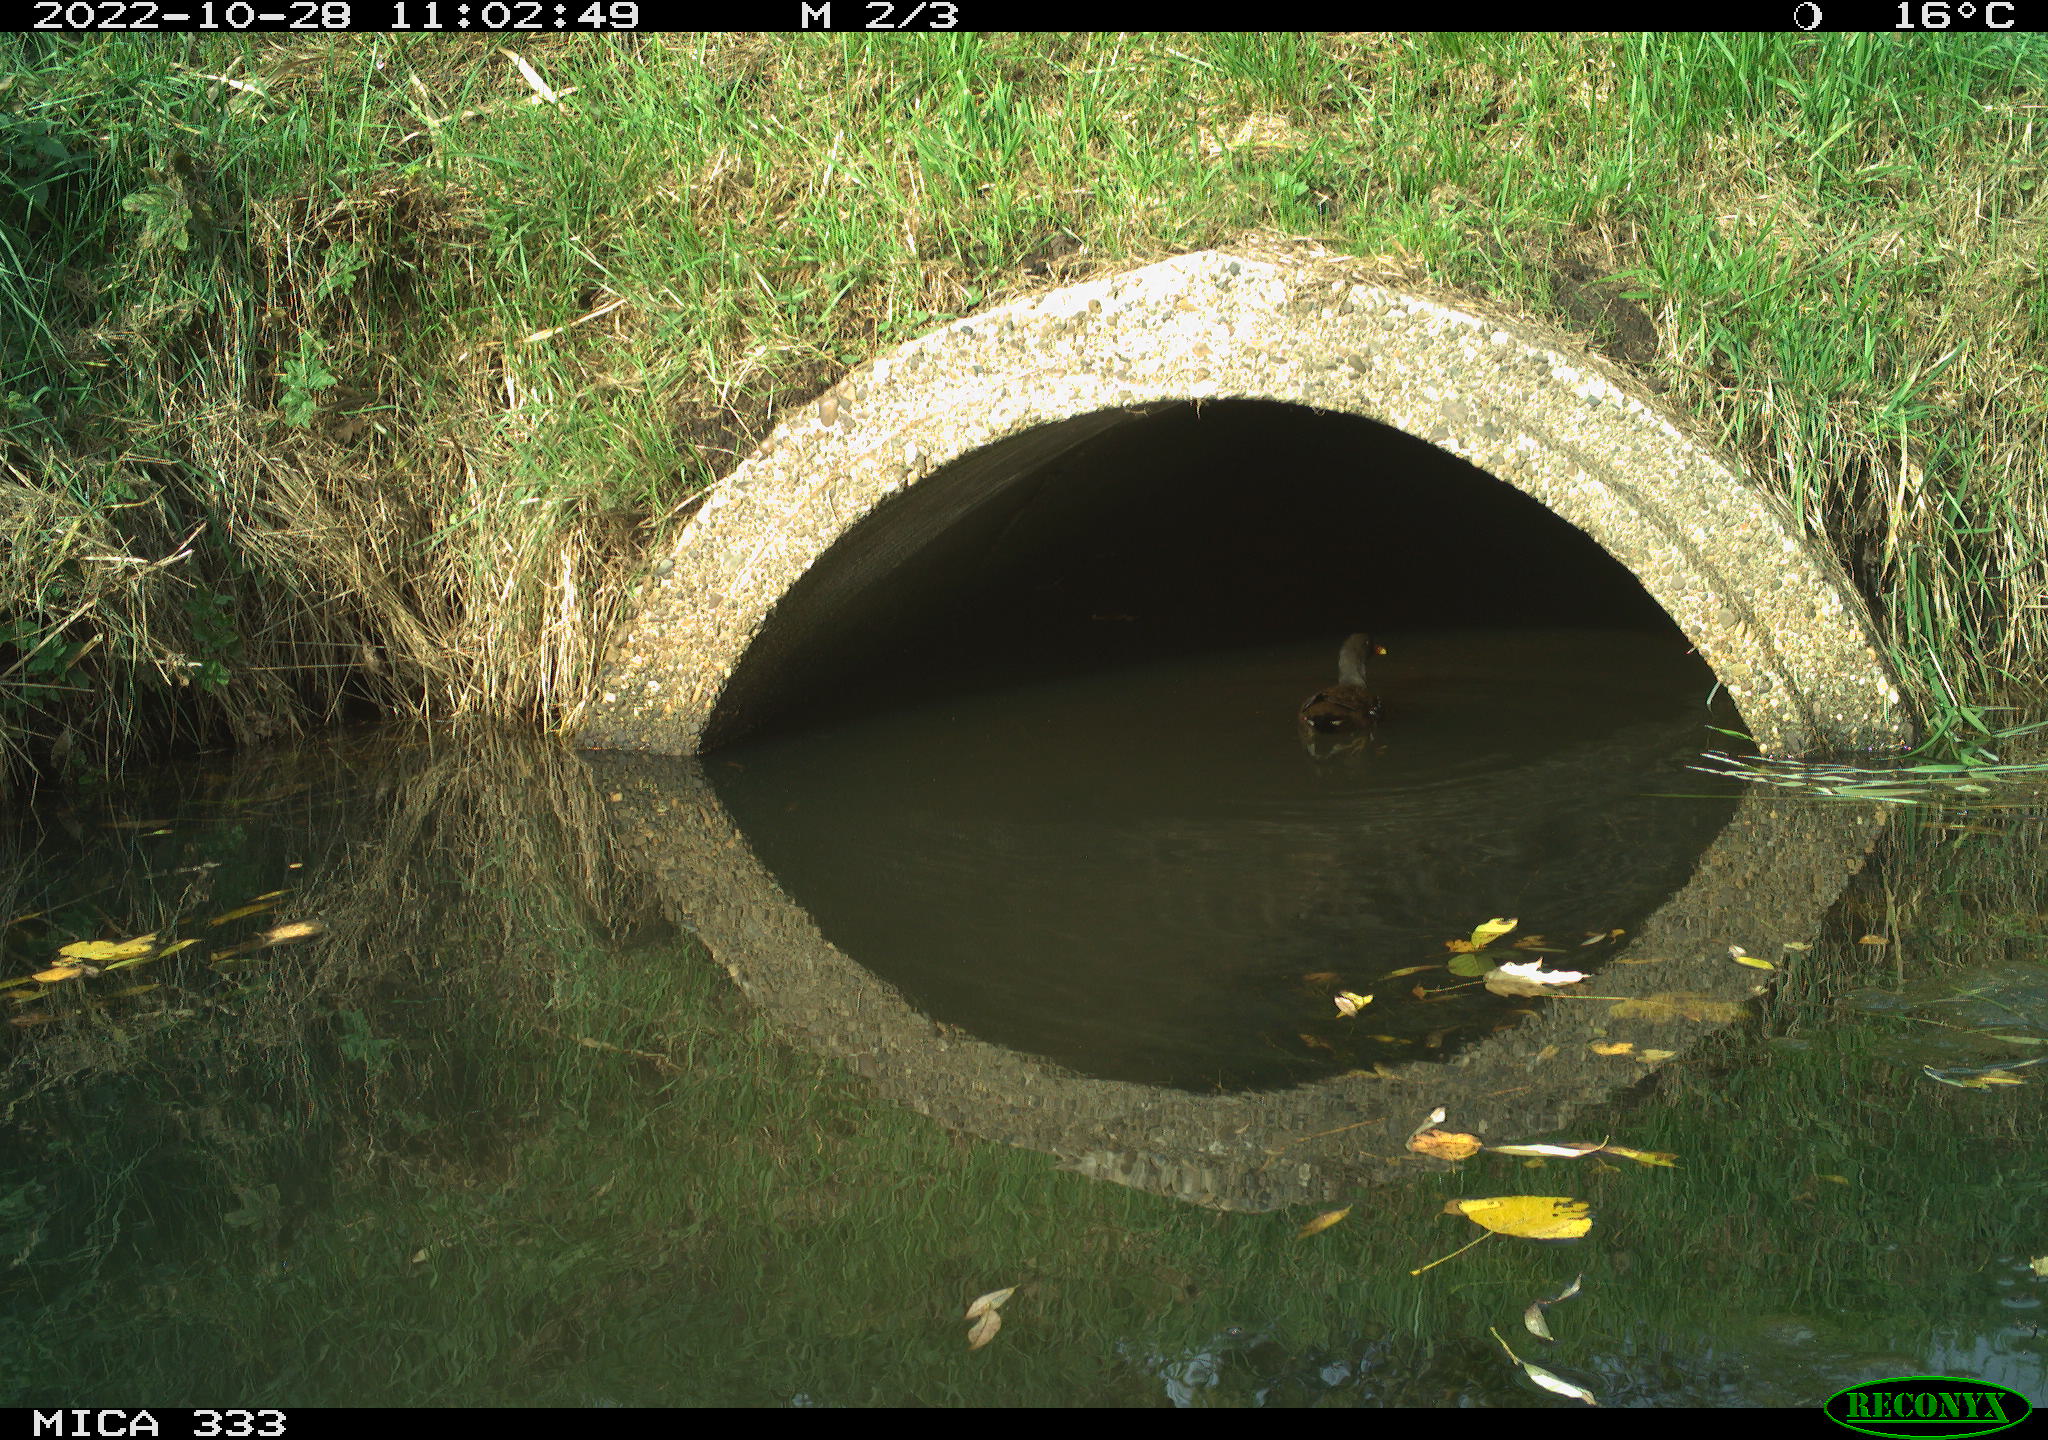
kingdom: Animalia
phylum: Chordata
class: Aves
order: Gruiformes
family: Rallidae
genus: Gallinula
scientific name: Gallinula chloropus
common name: Common moorhen
